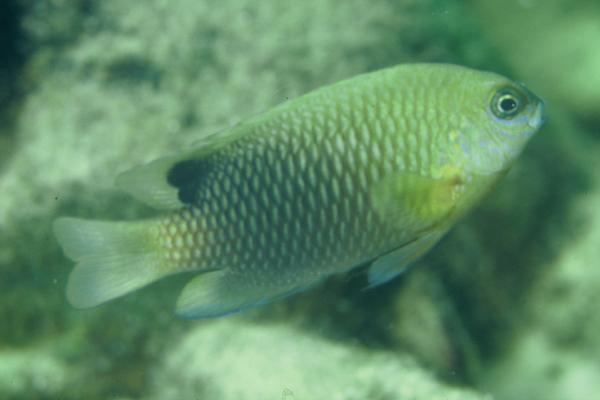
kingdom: Animalia
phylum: Chordata
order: Perciformes
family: Pomacentridae
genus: Chrysiptera
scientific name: Chrysiptera unimaculata
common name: Onespot demoiselle
